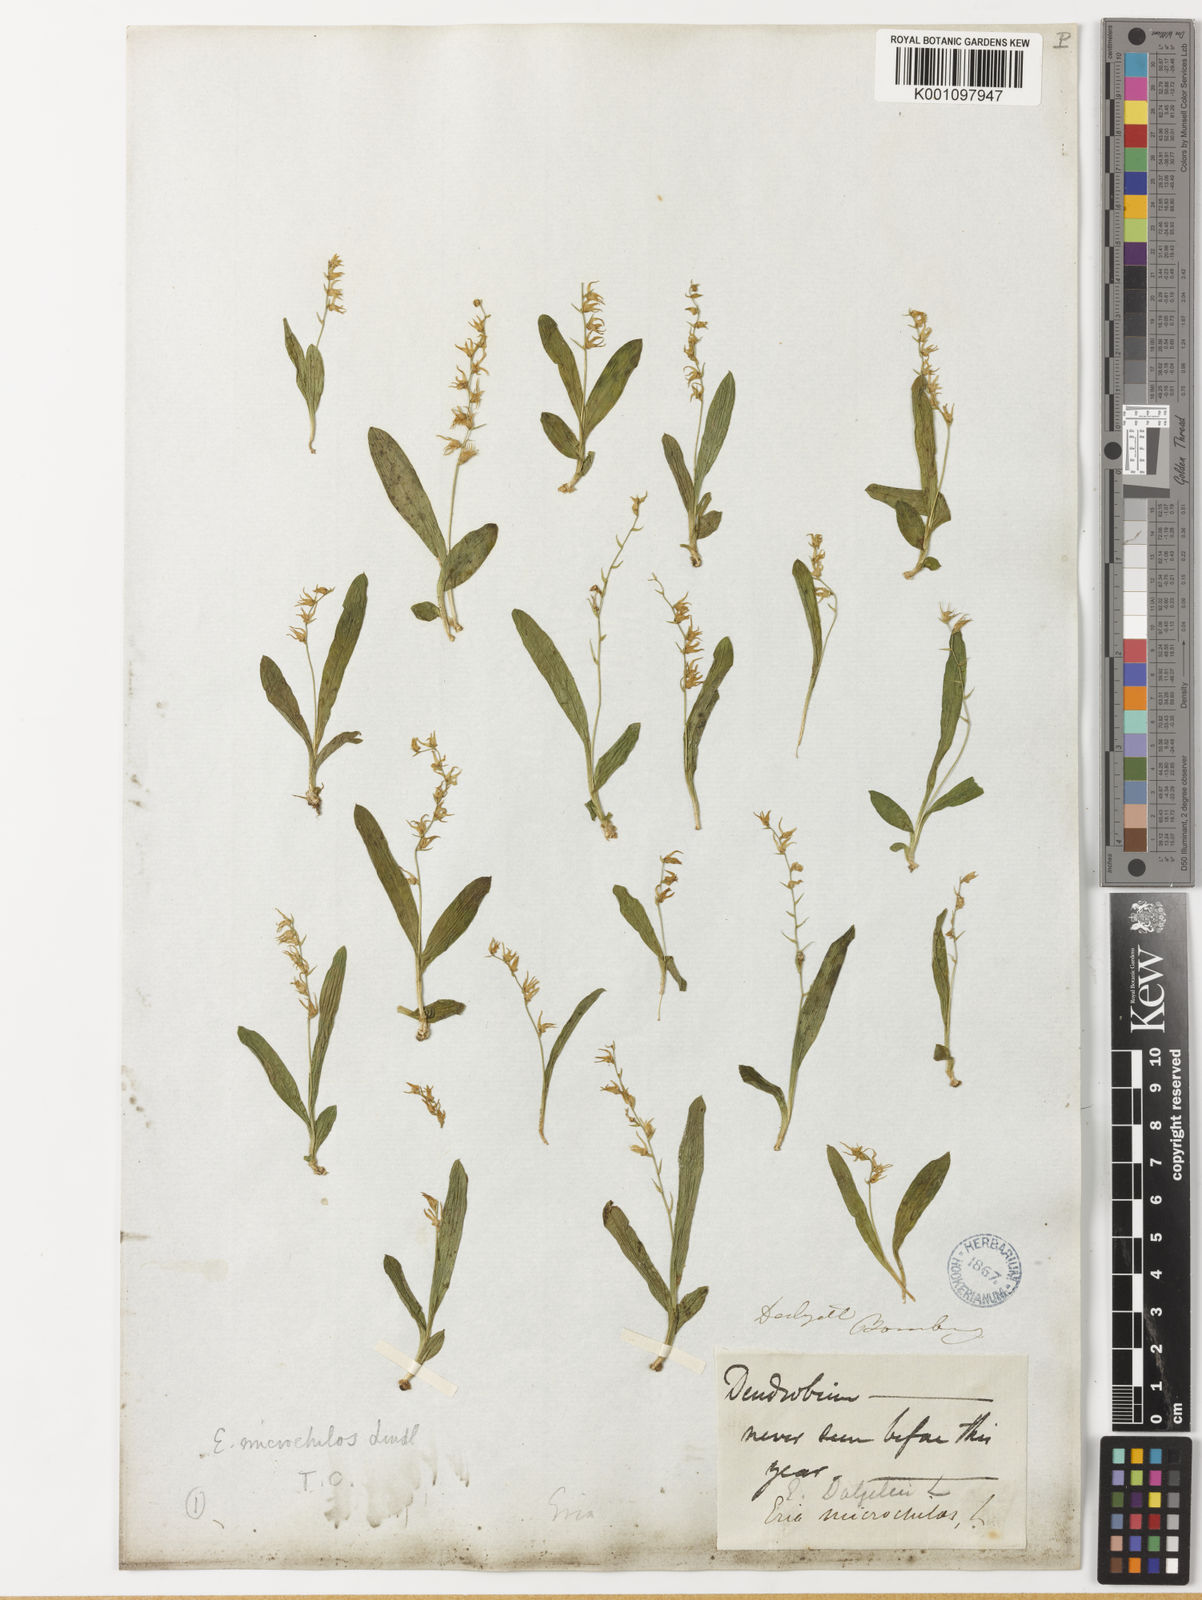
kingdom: Plantae
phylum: Tracheophyta
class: Liliopsida
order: Asparagales
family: Orchidaceae
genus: Porpax
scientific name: Porpax filiformis
